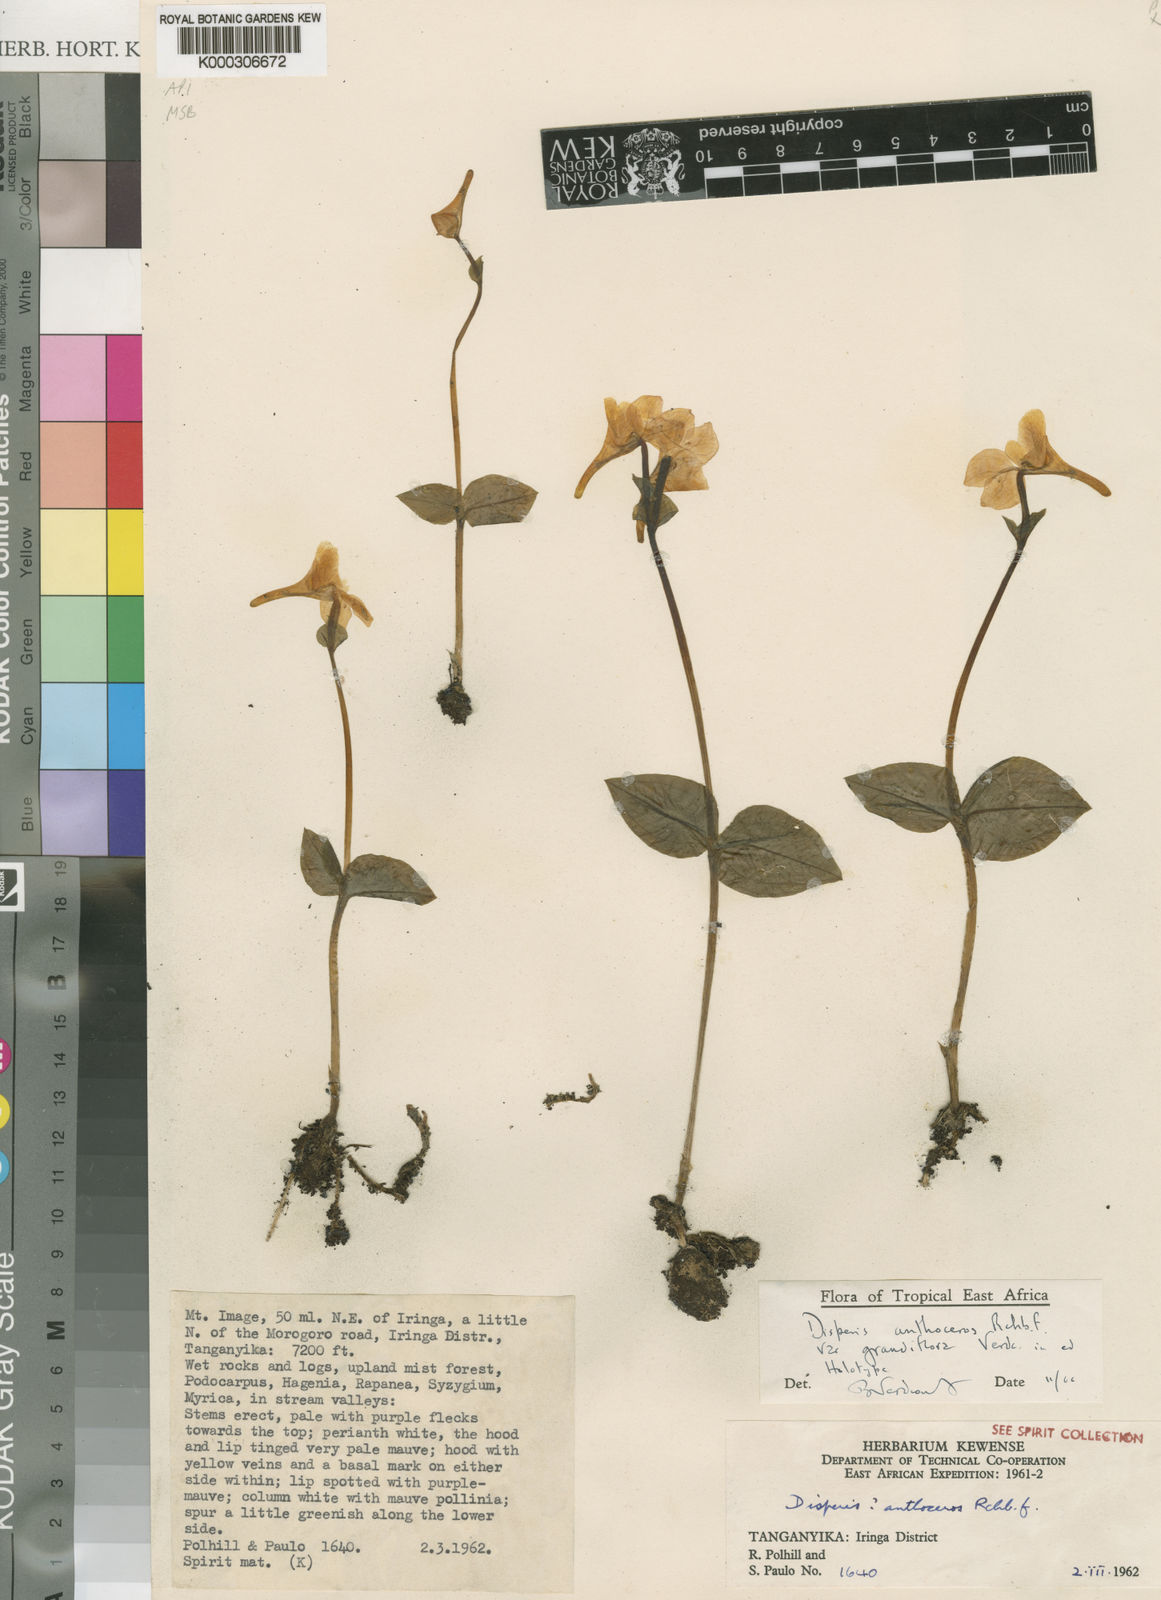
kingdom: Plantae
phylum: Tracheophyta
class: Liliopsida
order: Asparagales
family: Orchidaceae
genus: Disperis
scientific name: Disperis anthoceros
